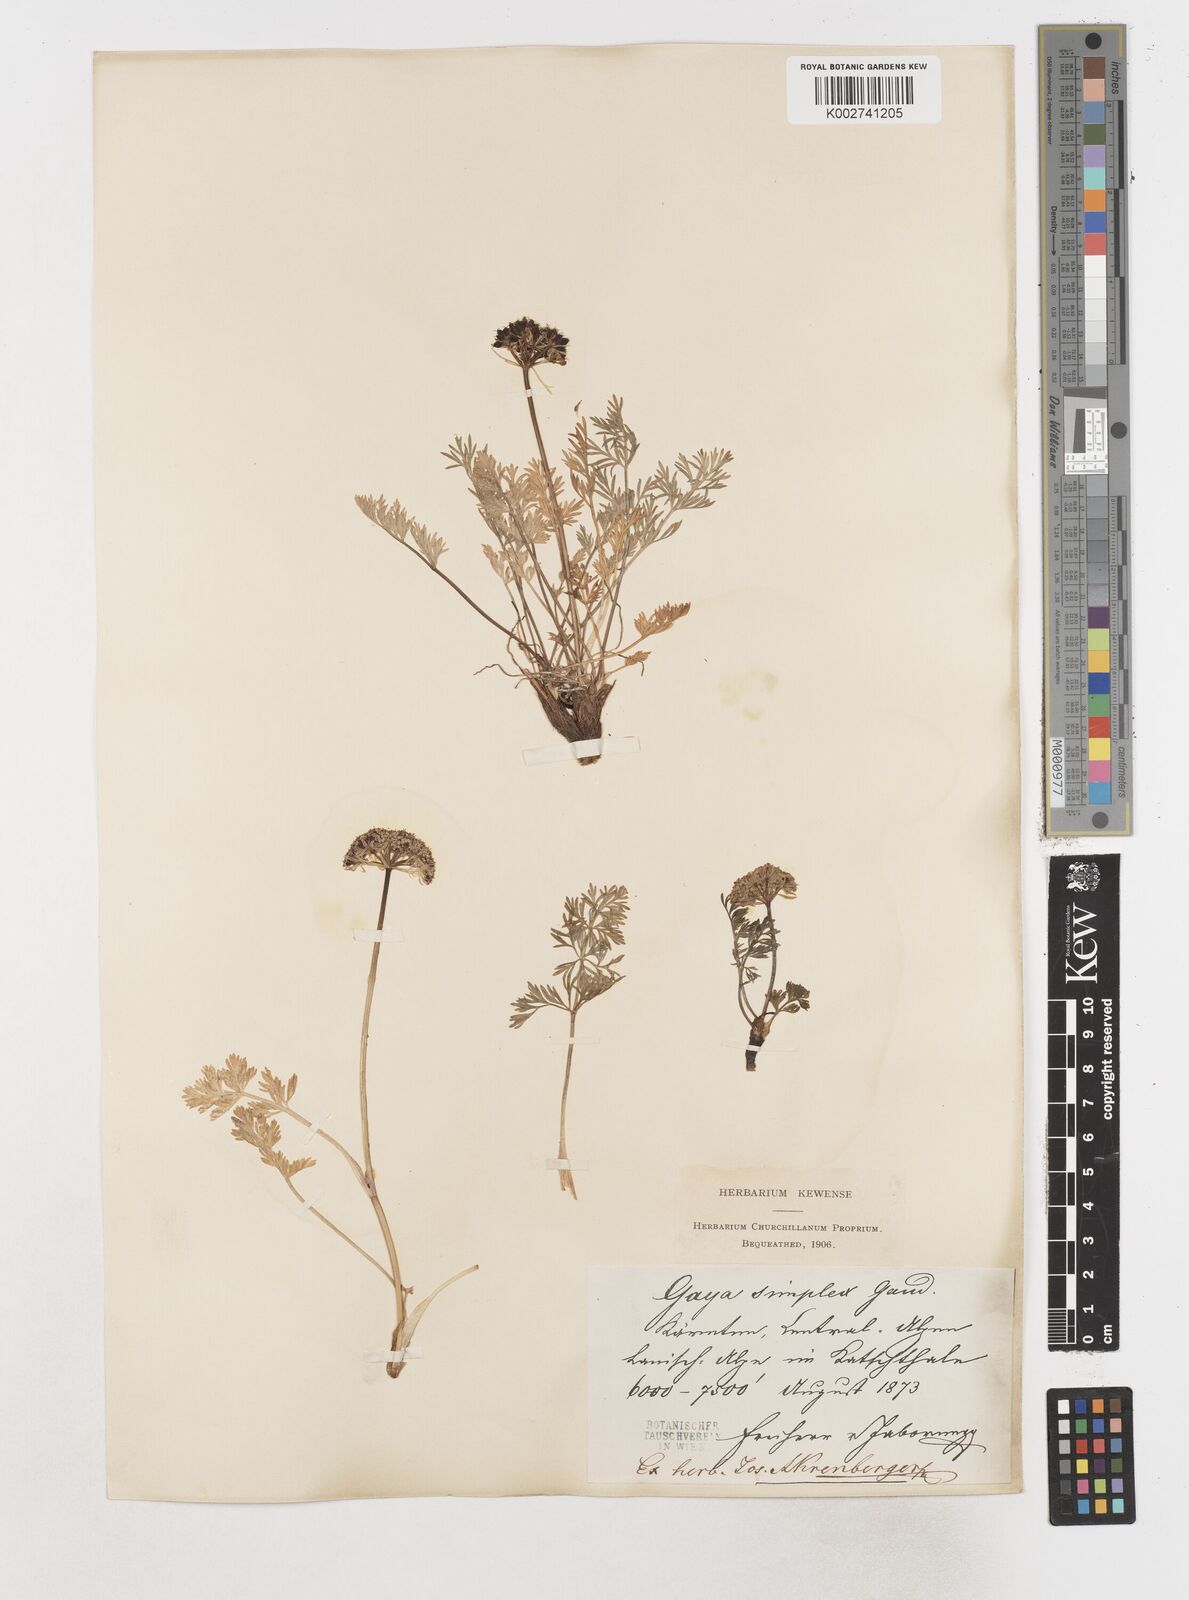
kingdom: Plantae
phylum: Tracheophyta
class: Magnoliopsida
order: Apiales
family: Apiaceae
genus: Pachypleurum
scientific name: Pachypleurum mutellinoides
